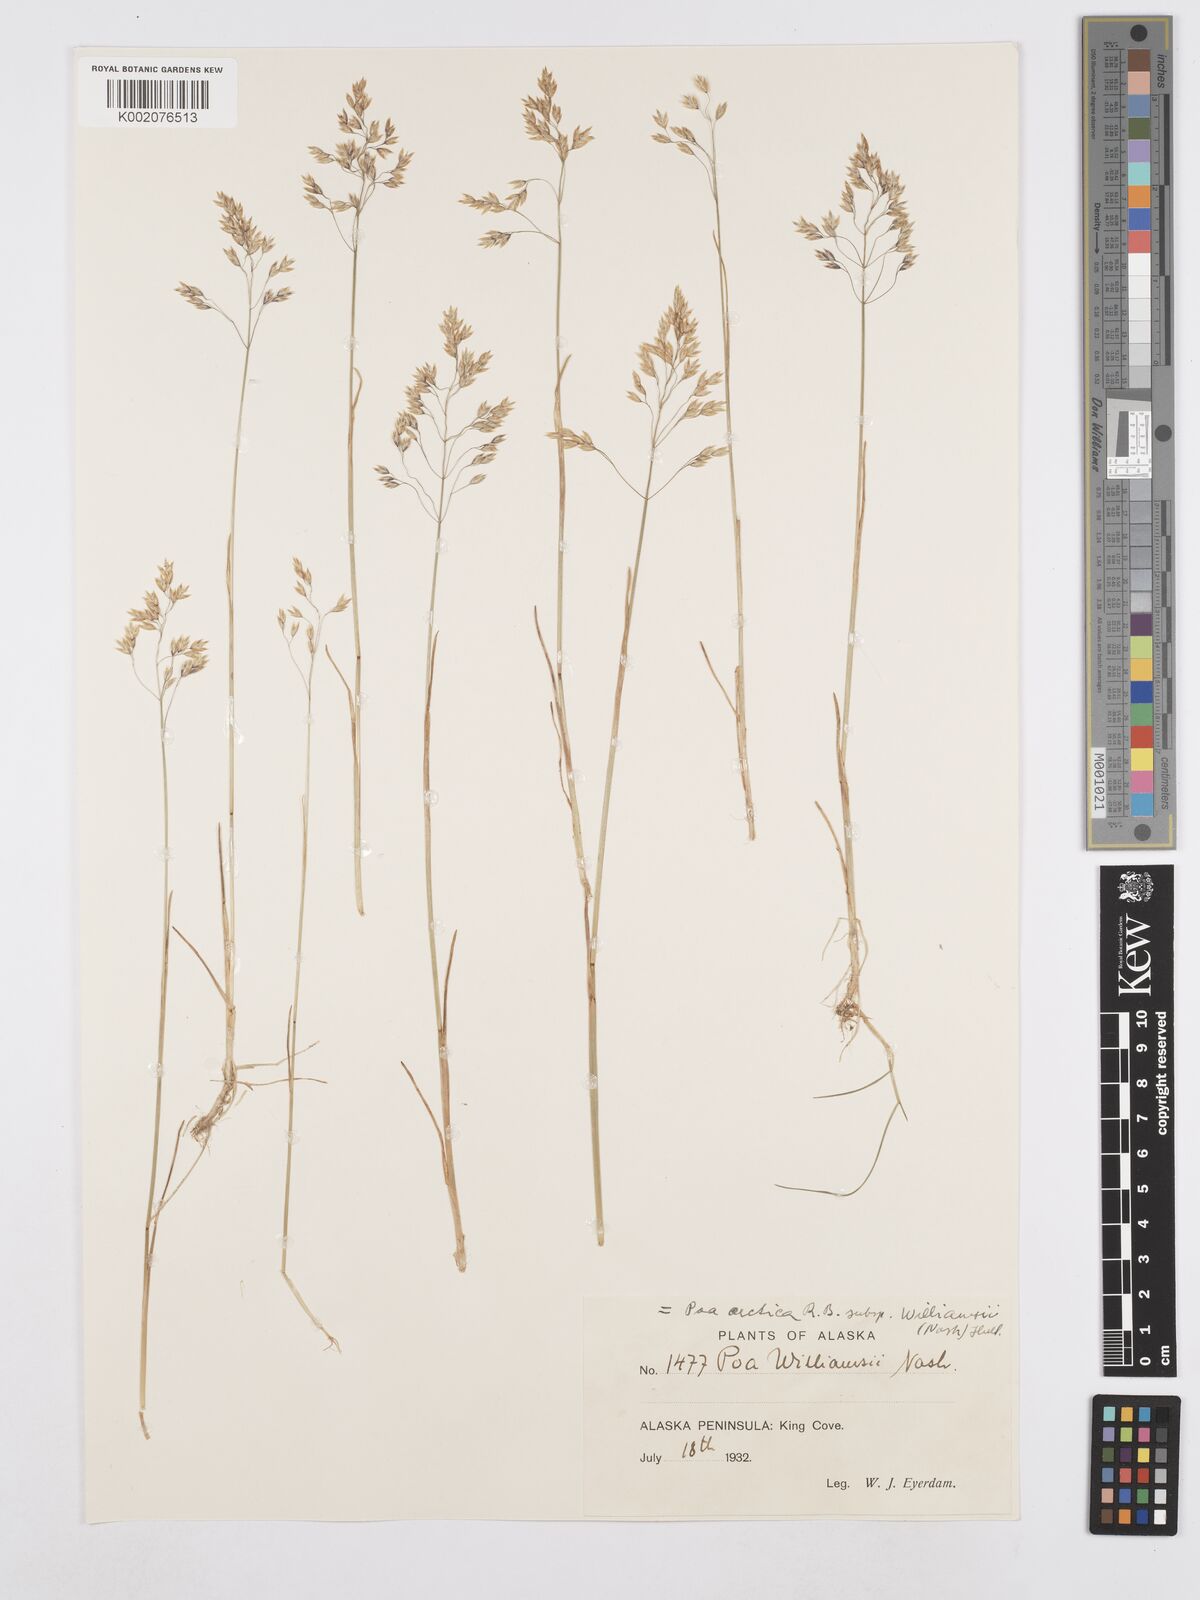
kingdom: Plantae
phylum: Tracheophyta
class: Liliopsida
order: Poales
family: Poaceae
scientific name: Poaceae
